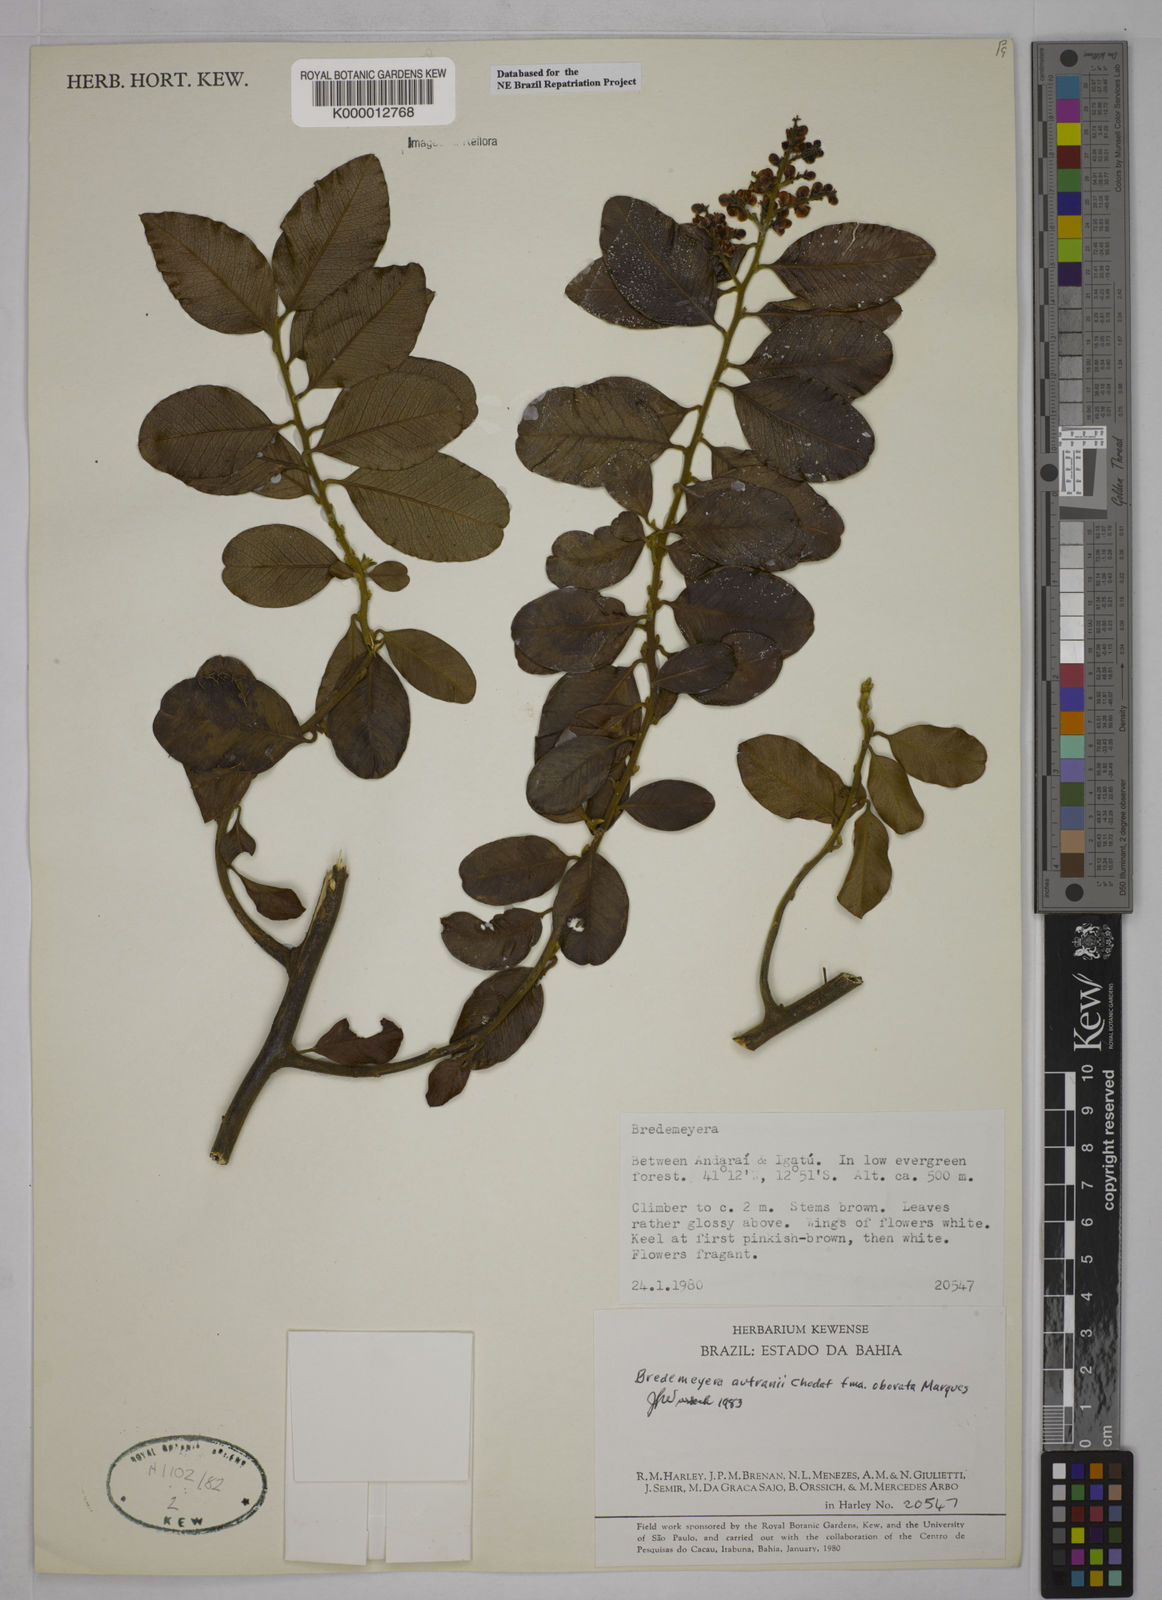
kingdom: Plantae
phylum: Tracheophyta
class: Magnoliopsida
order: Fabales
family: Polygalaceae
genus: Bredemeyera
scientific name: Bredemeyera disperma
